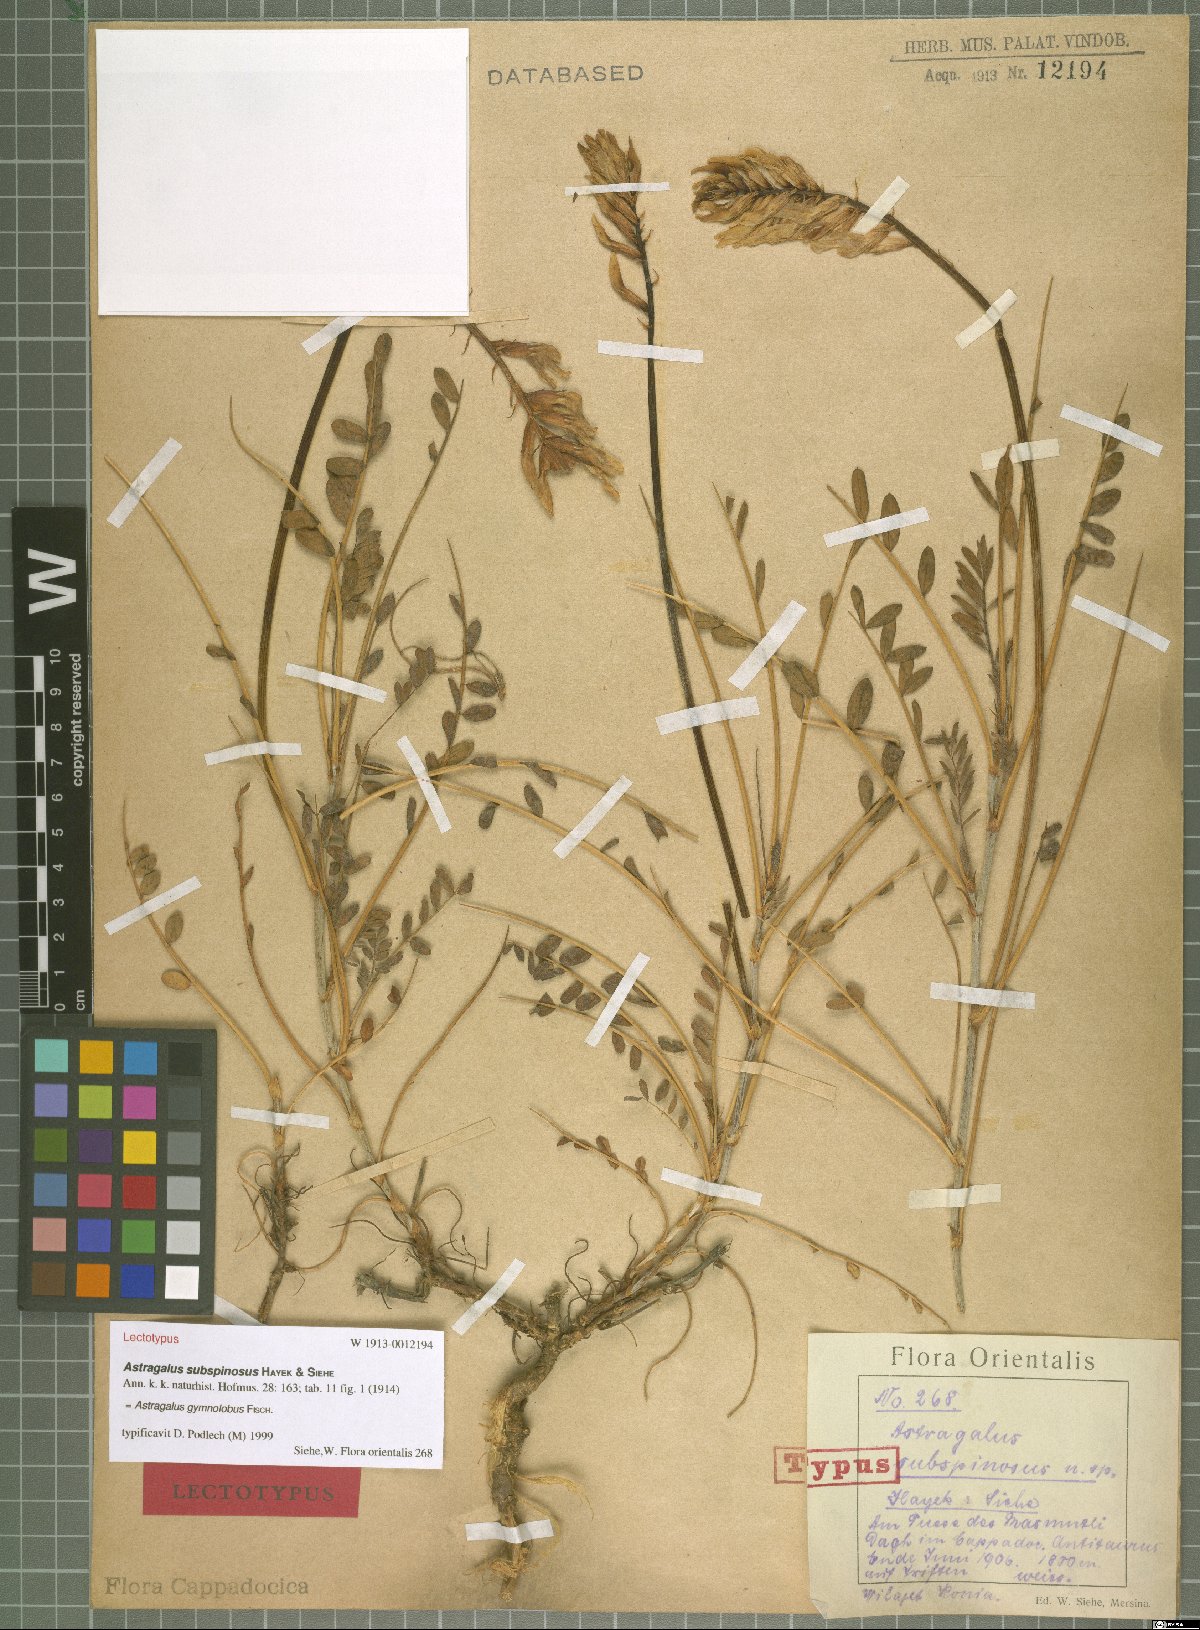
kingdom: Plantae
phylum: Tracheophyta
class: Magnoliopsida
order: Fabales
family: Fabaceae
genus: Astragalus
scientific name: Astragalus gymnolobus
